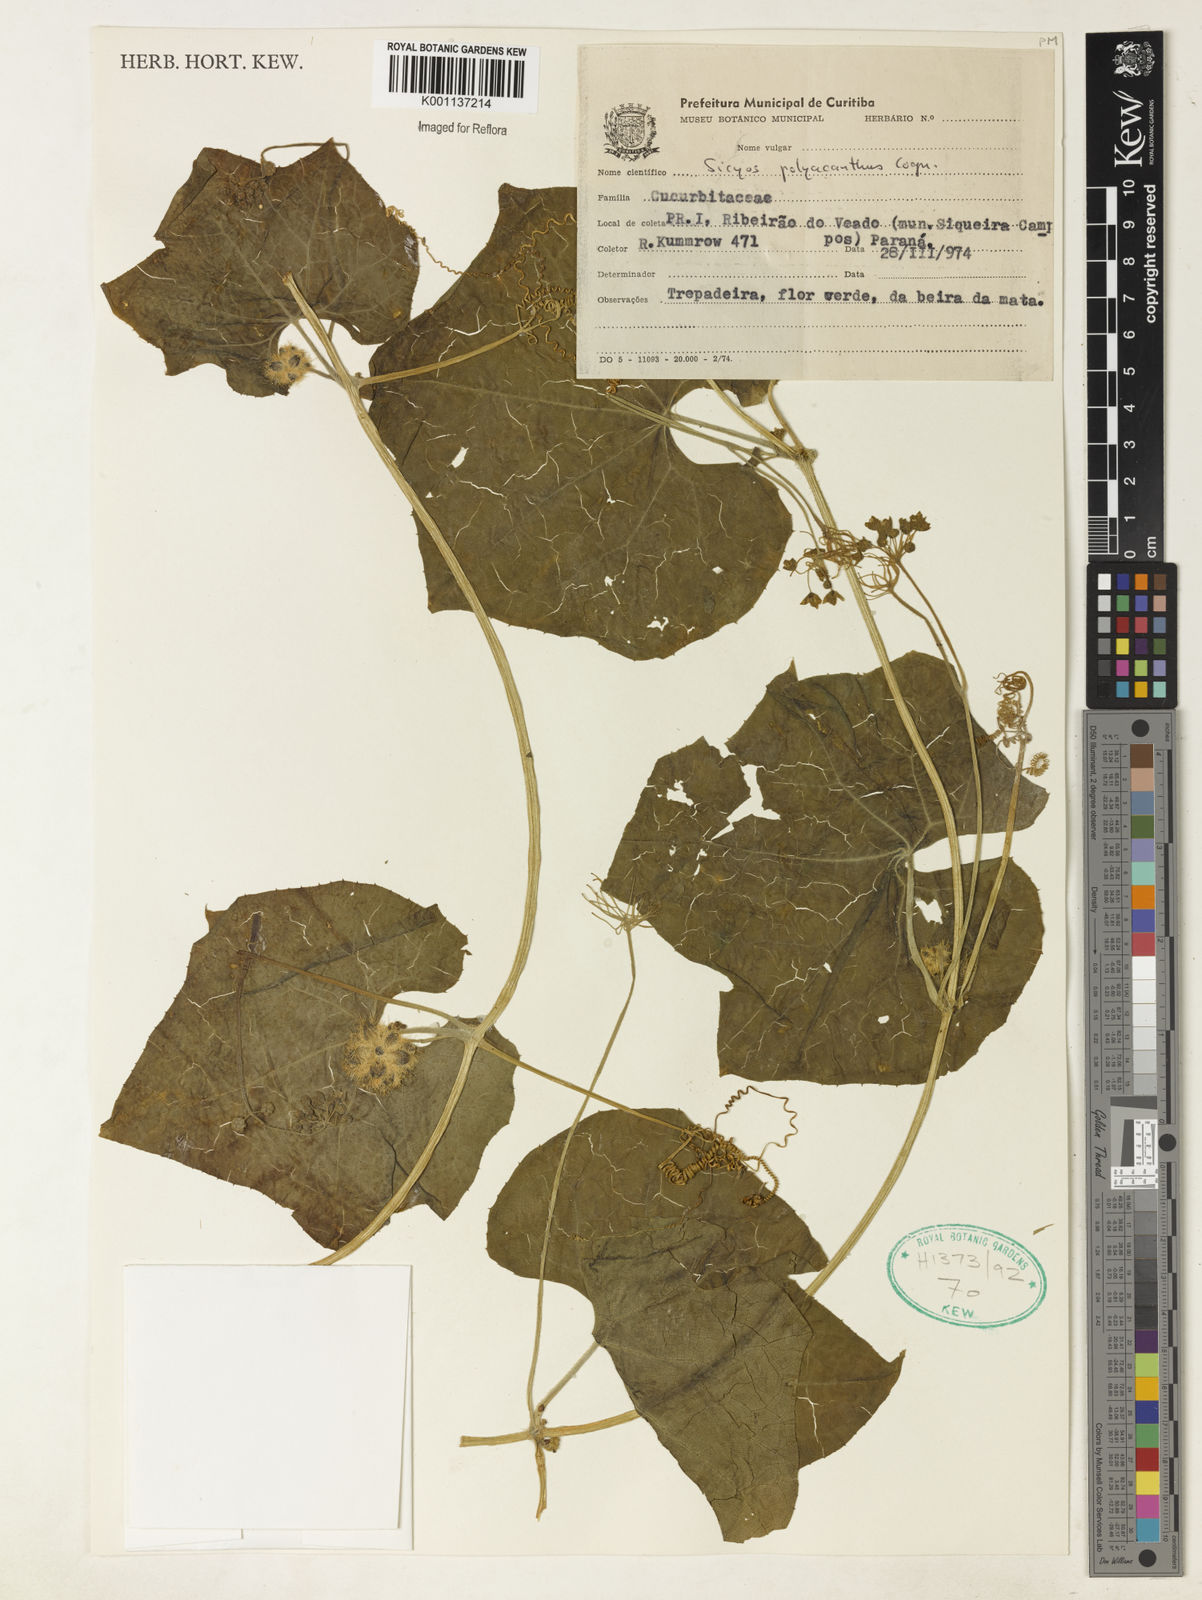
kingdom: Plantae
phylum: Tracheophyta
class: Magnoliopsida
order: Cucurbitales
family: Cucurbitaceae
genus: Sicyos
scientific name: Sicyos polyacanthos
